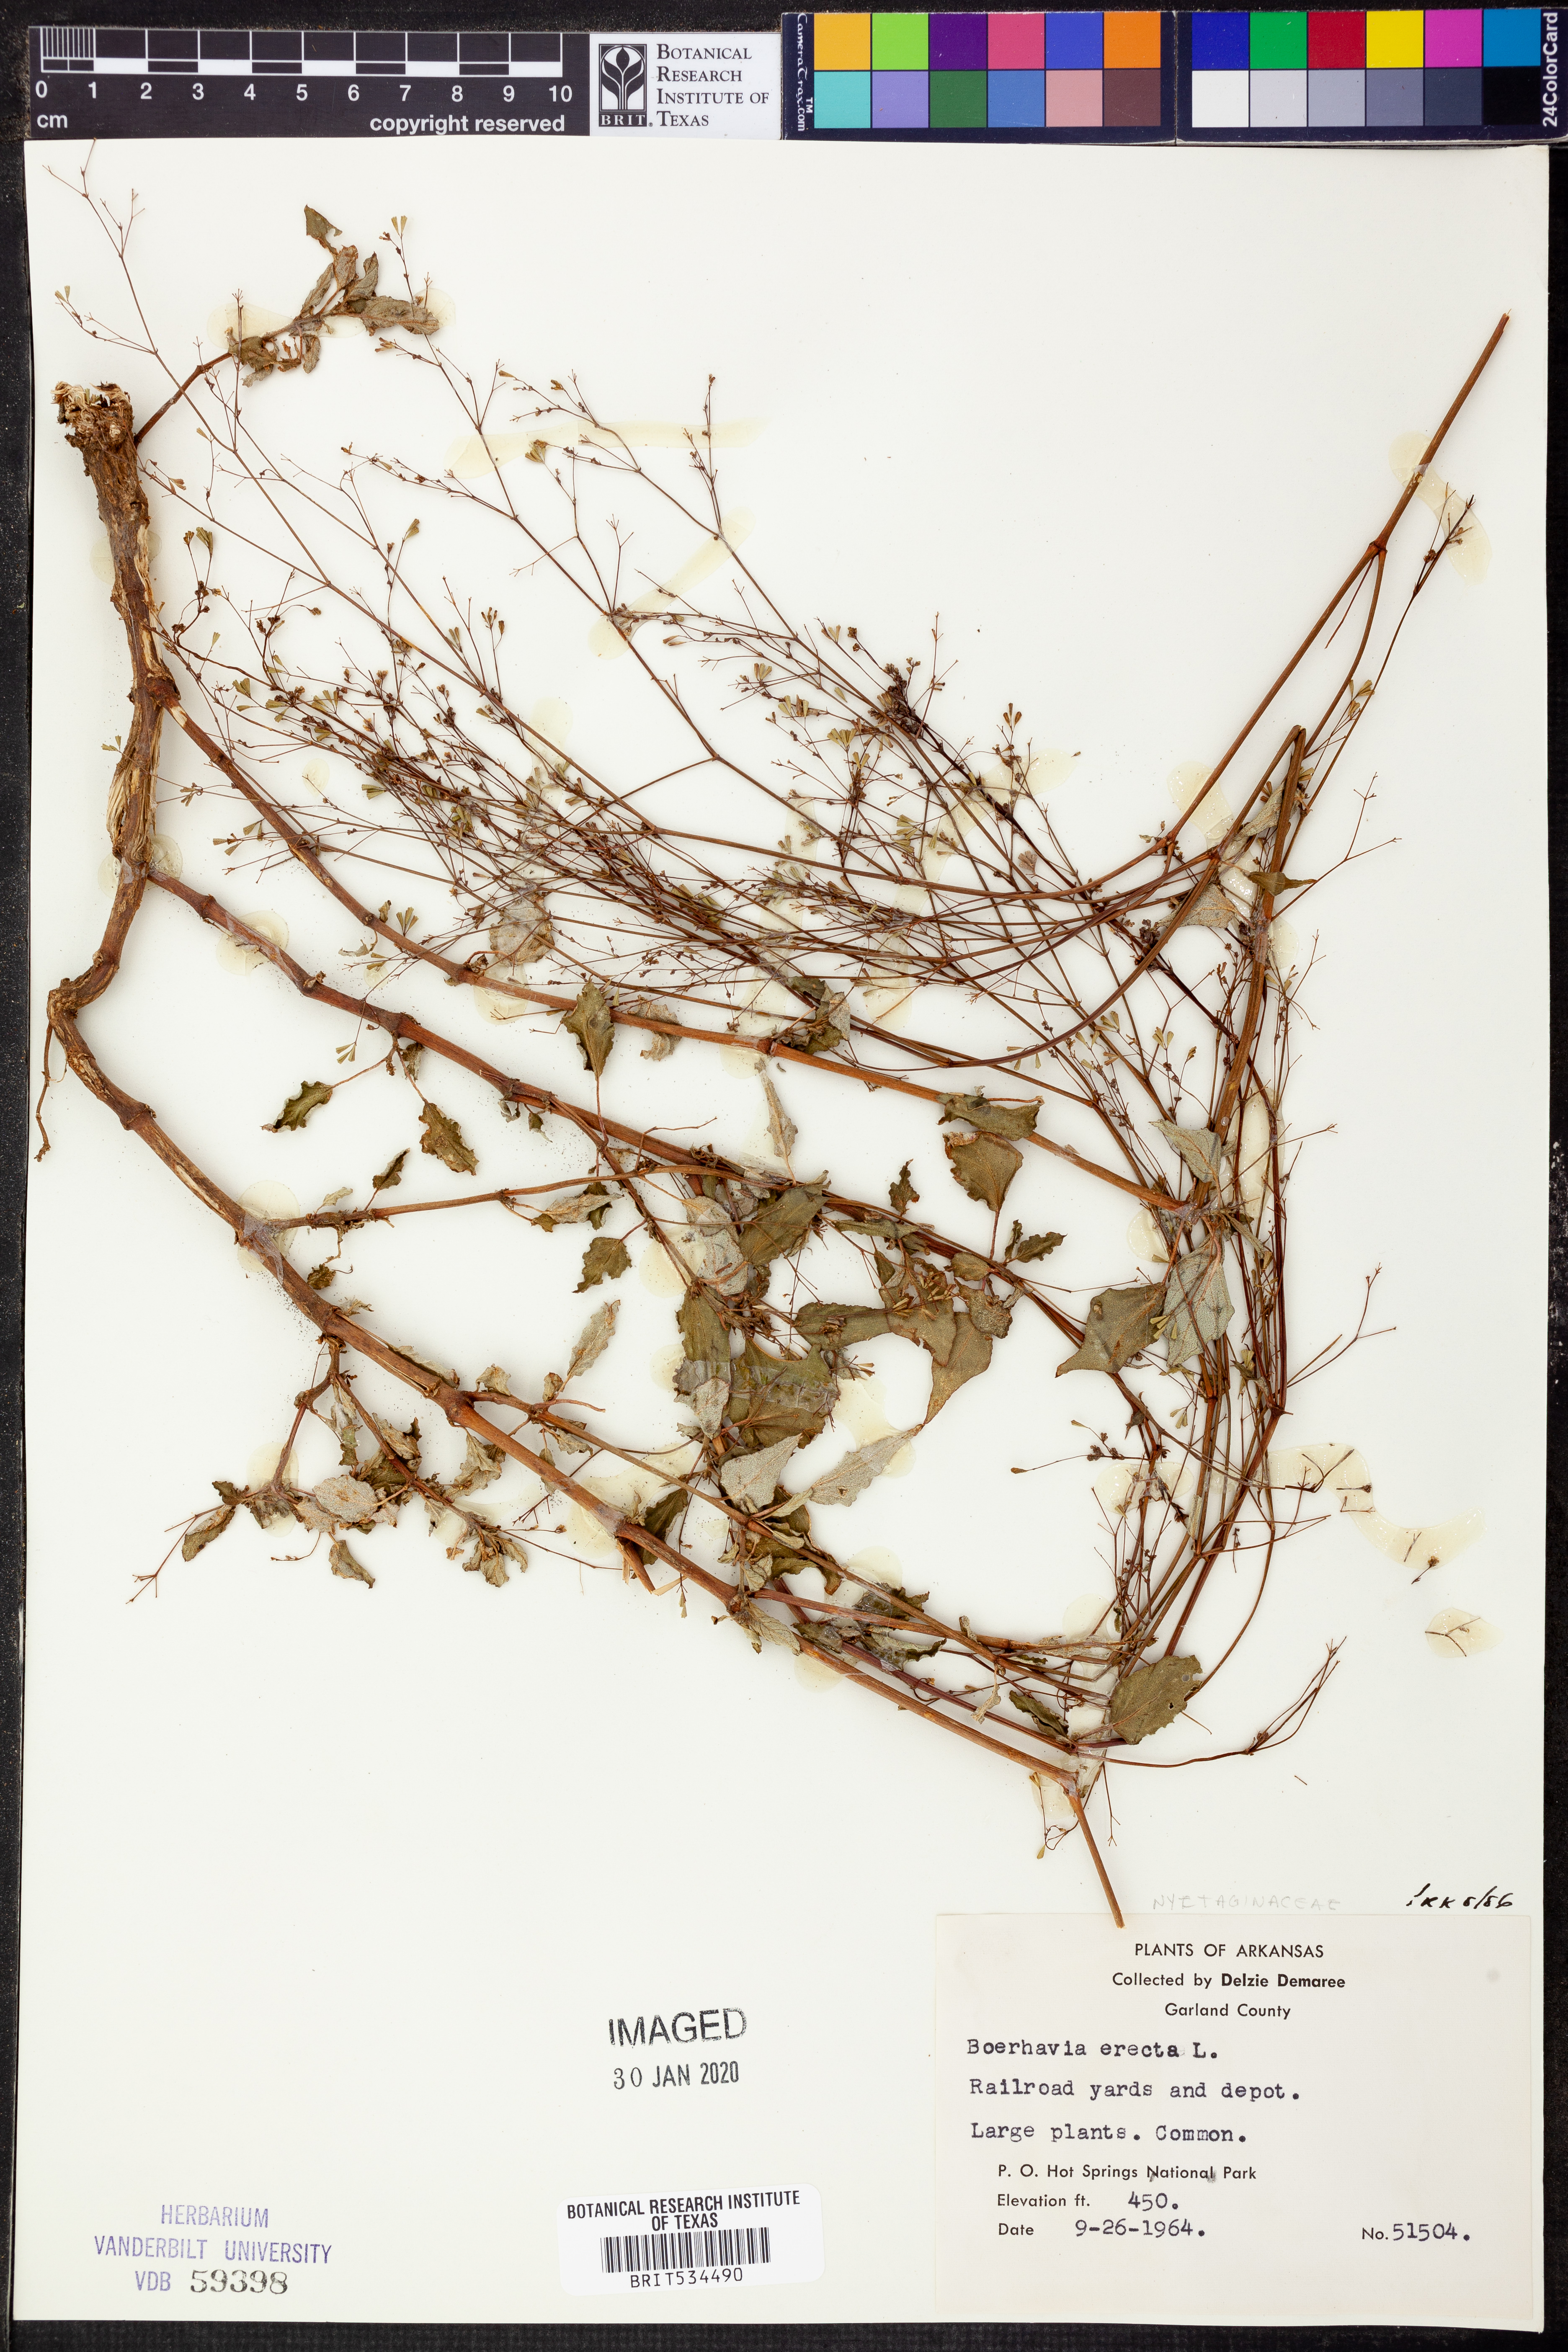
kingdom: Plantae
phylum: Tracheophyta
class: Magnoliopsida
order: Caryophyllales
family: Nyctaginaceae
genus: Boerhavia
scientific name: Boerhavia erecta
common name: Erect spiderling
